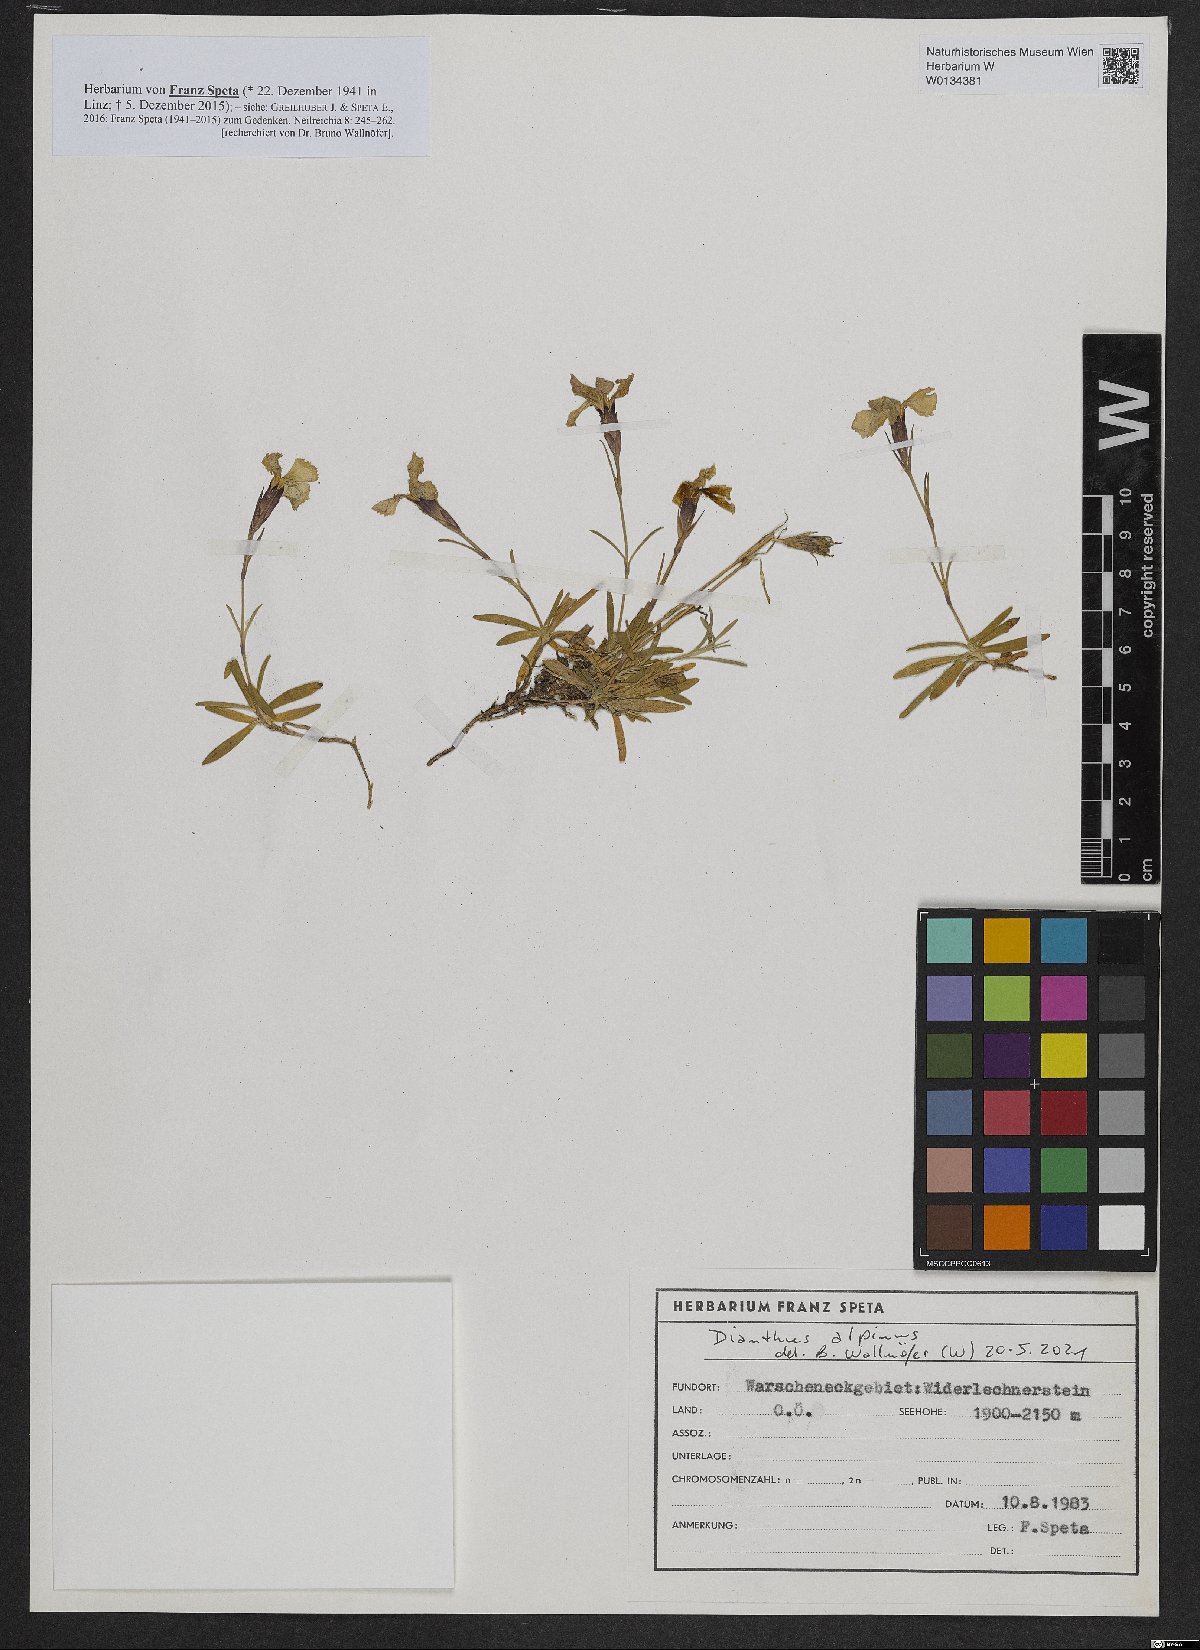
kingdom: Plantae
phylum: Tracheophyta
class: Magnoliopsida
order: Caryophyllales
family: Caryophyllaceae
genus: Dianthus
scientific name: Dianthus alpinus
